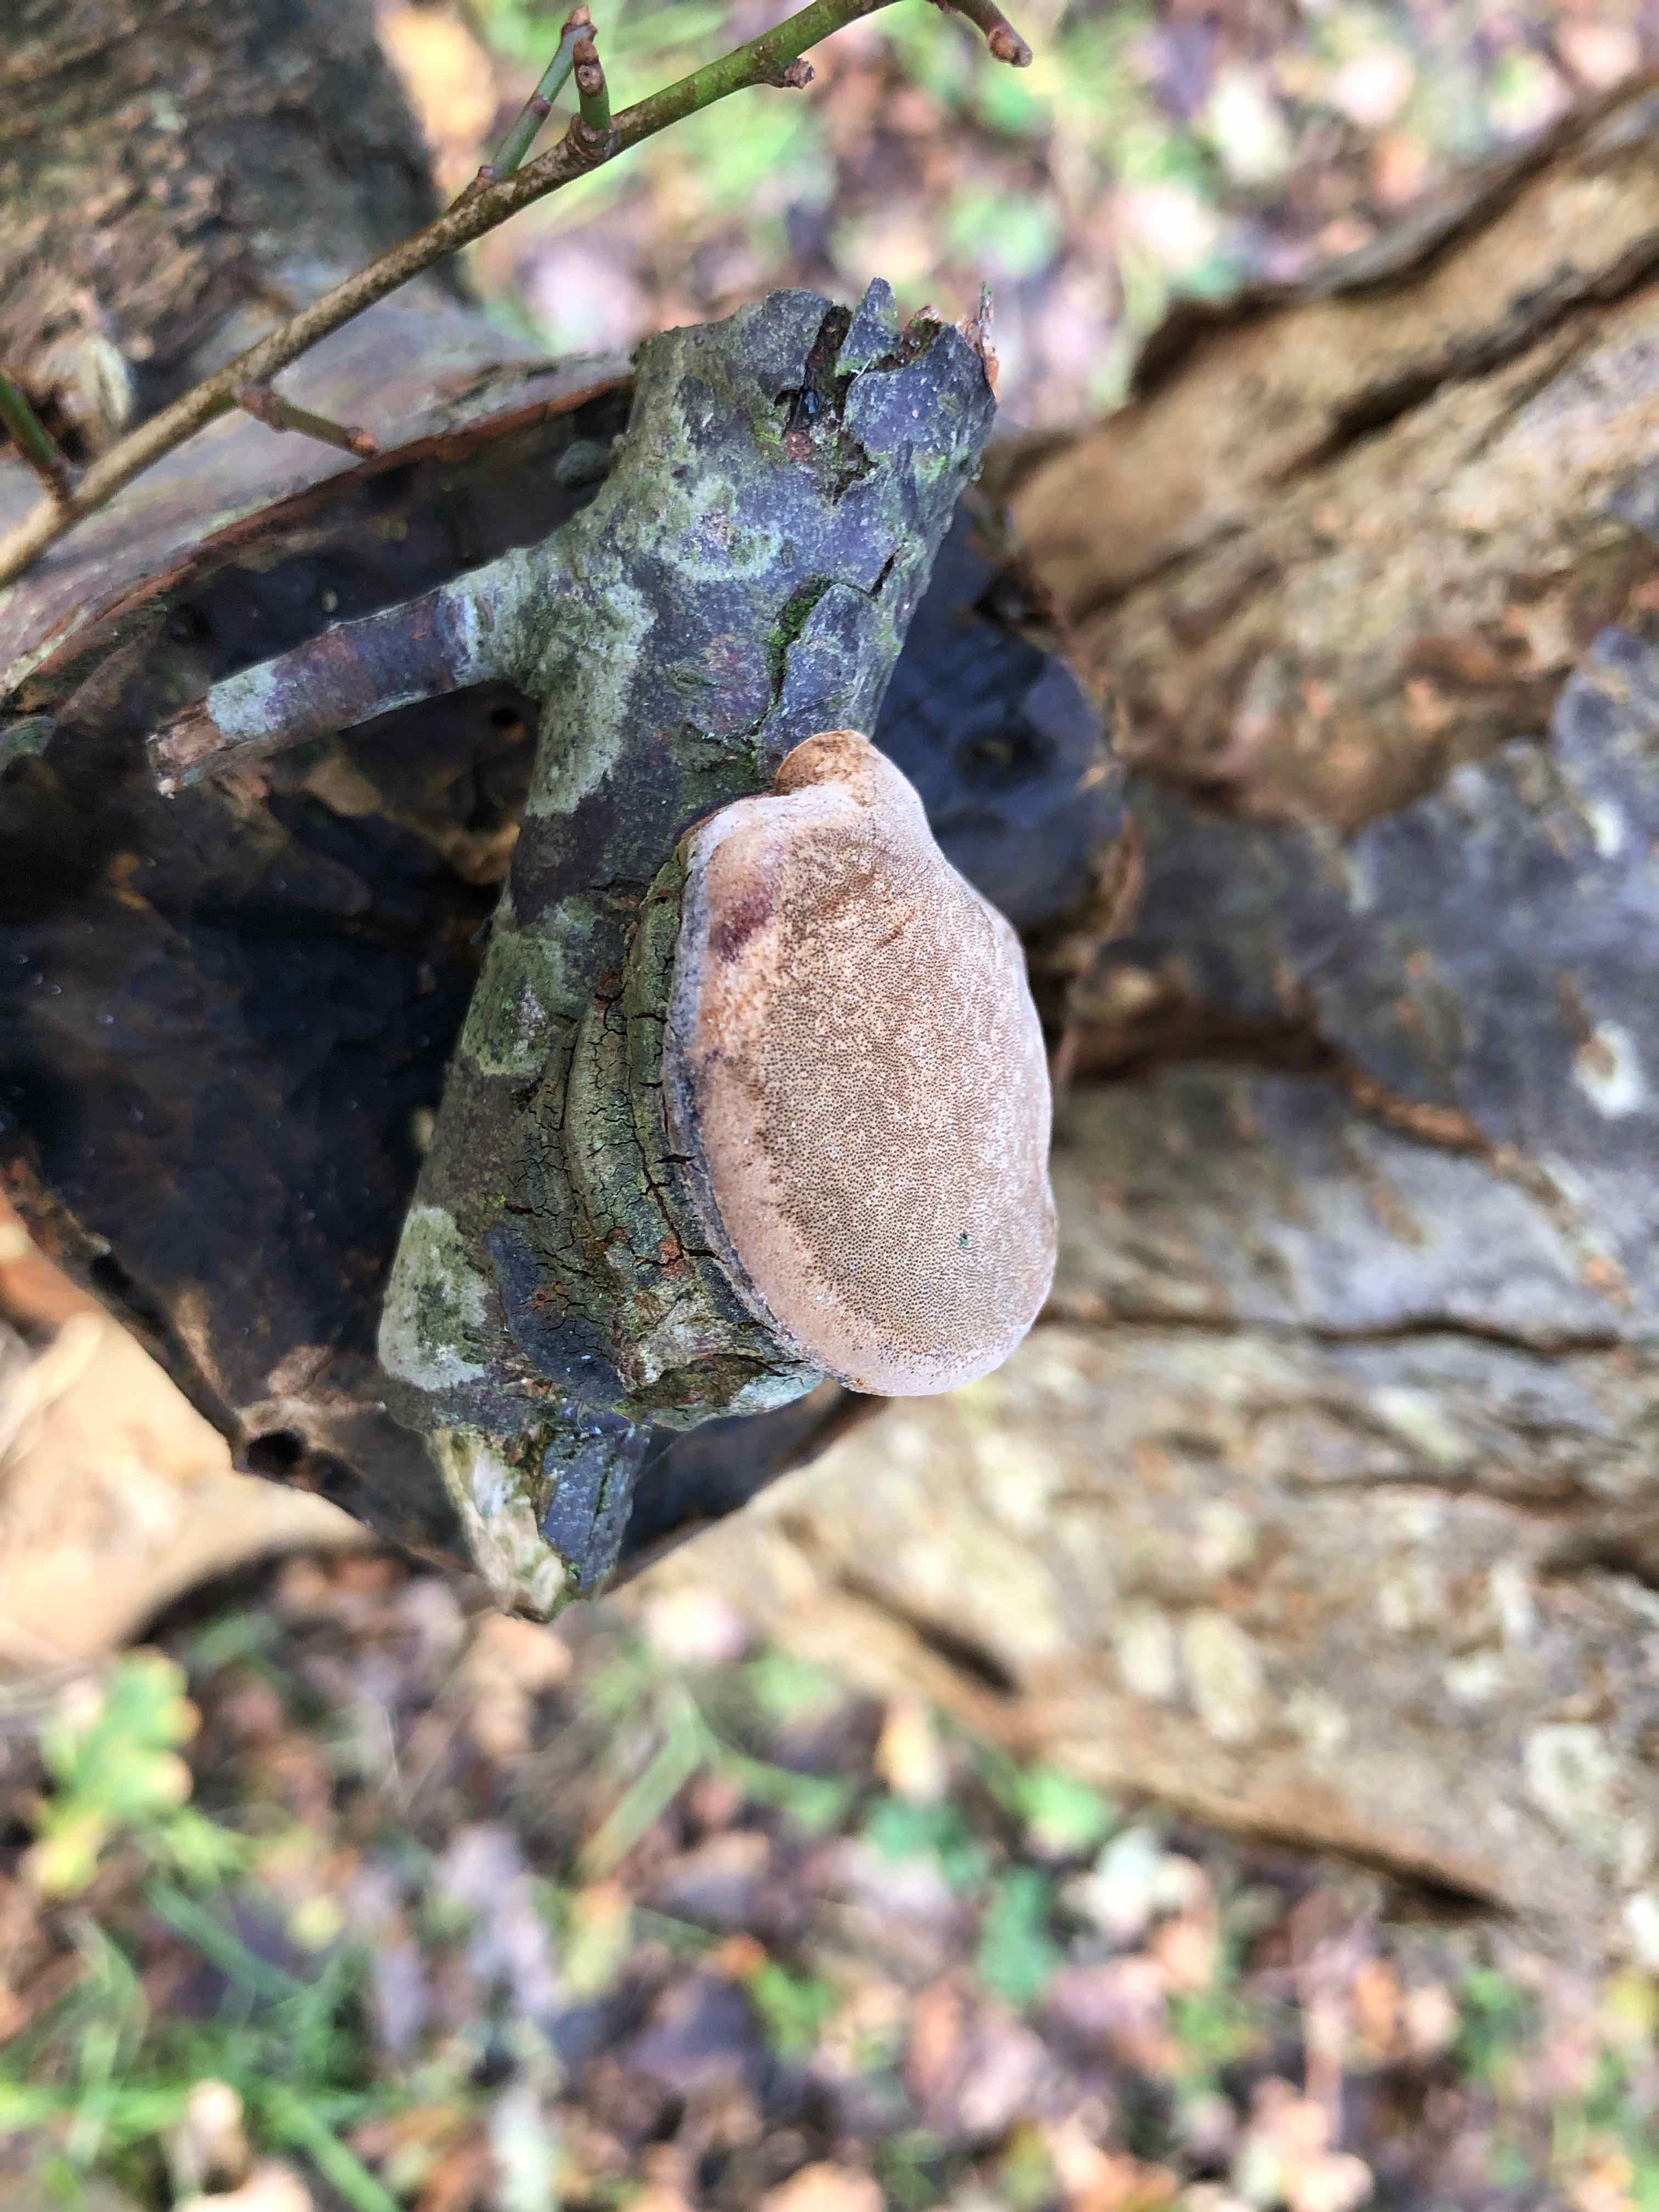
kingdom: Fungi
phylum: Basidiomycota
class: Agaricomycetes
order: Hymenochaetales
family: Hymenochaetaceae
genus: Phellinus
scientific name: Phellinus pomaceus
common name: blomme-ildporesvamp
